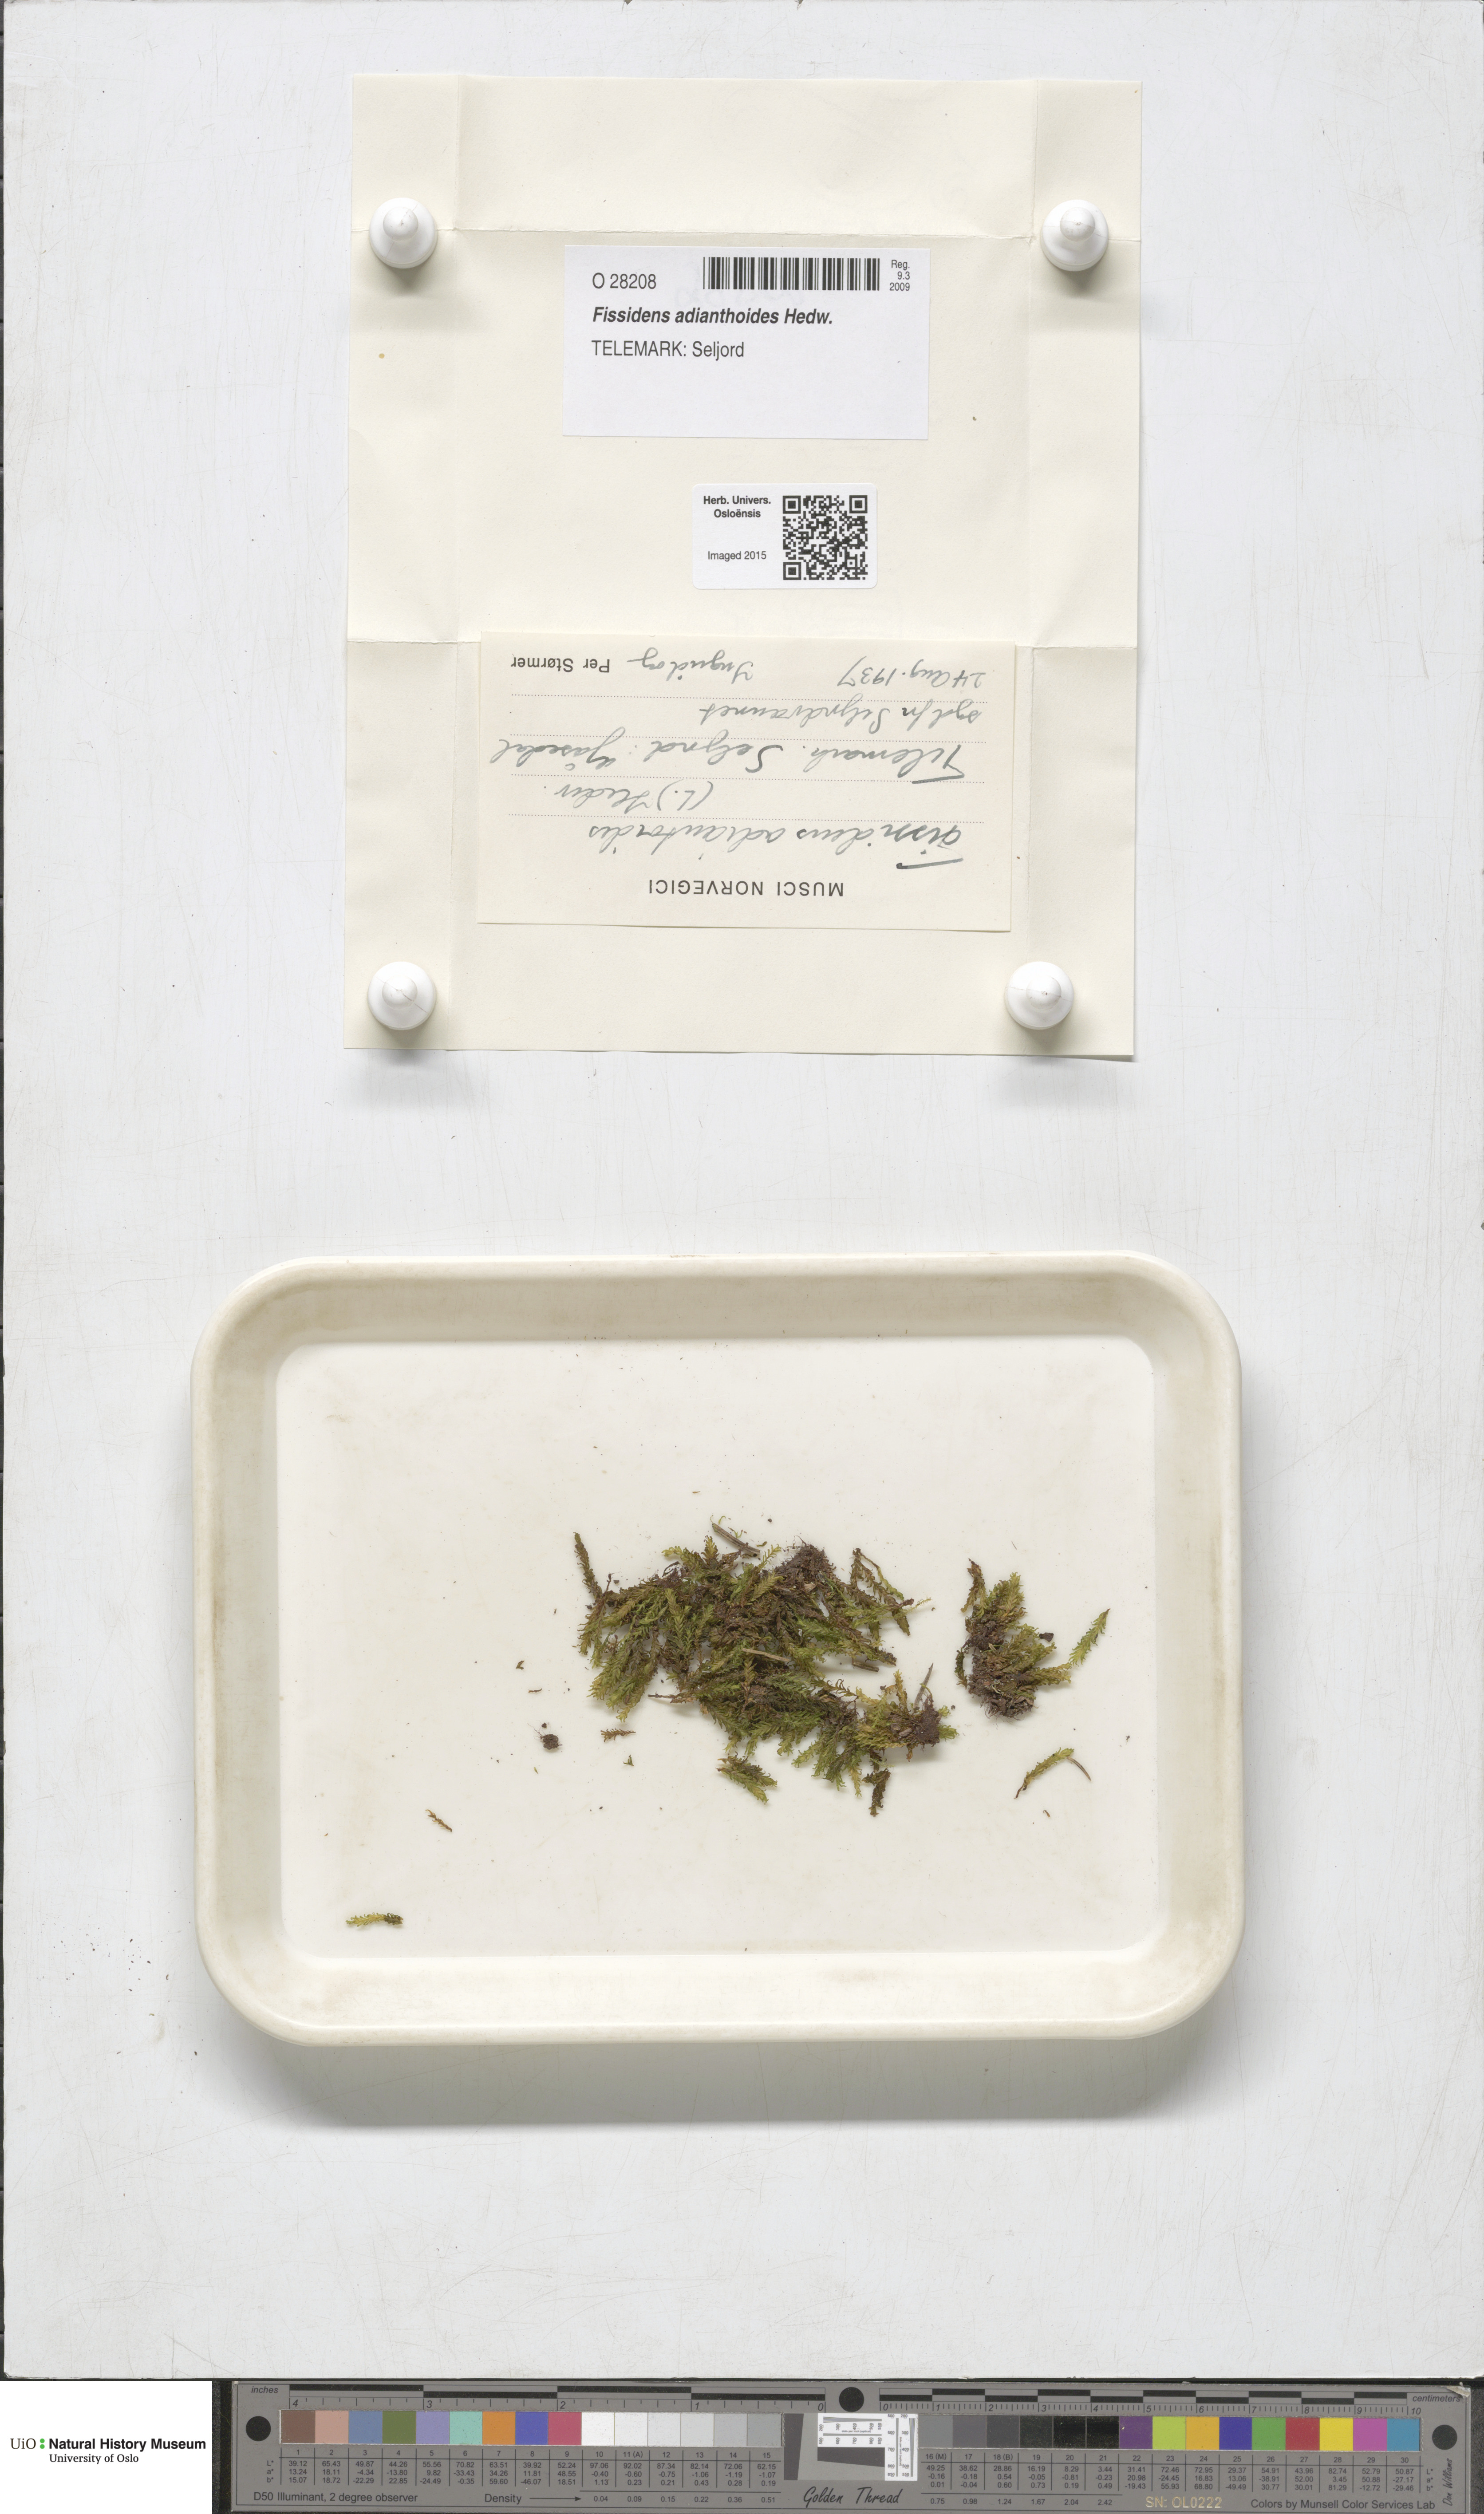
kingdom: Plantae
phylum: Bryophyta
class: Bryopsida
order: Dicranales
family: Fissidentaceae
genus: Fissidens
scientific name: Fissidens adianthoides
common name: Maidenhair pocket moss
